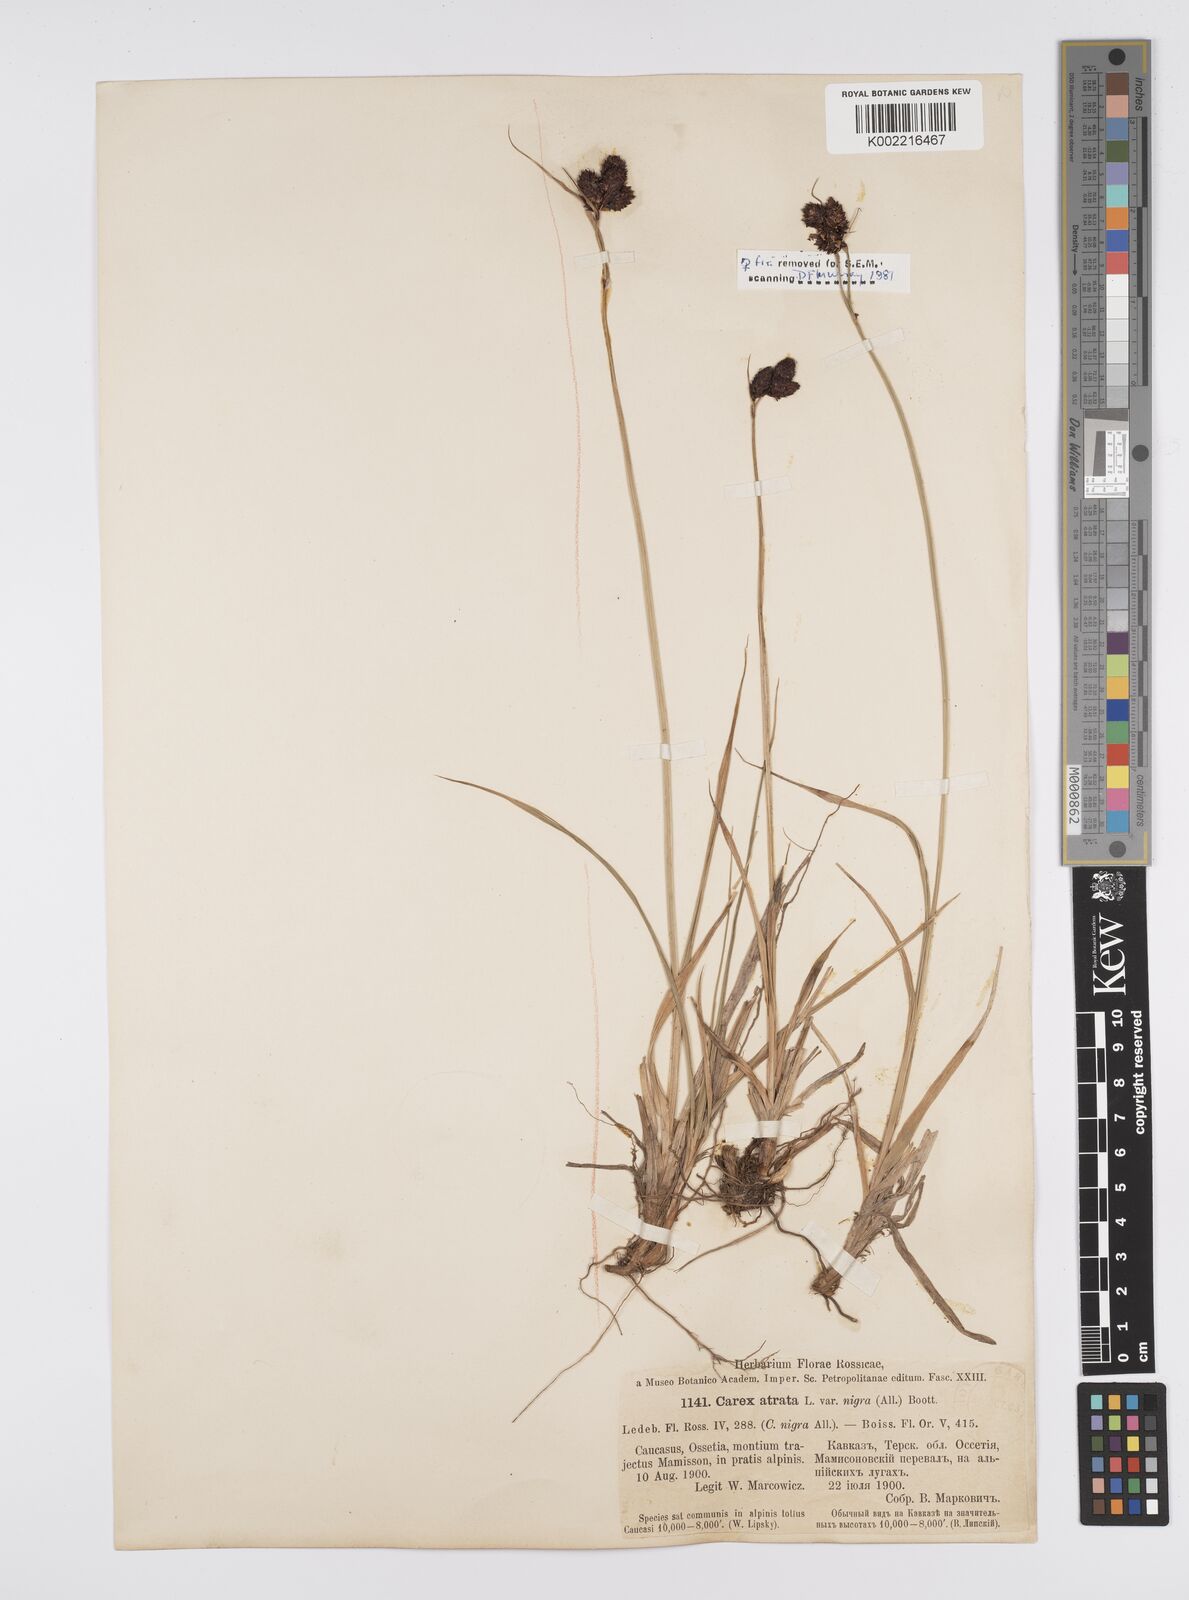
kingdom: Plantae
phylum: Tracheophyta
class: Liliopsida
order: Poales
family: Cyperaceae
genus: Carex
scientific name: Carex atrata
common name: Black alpine sedge
